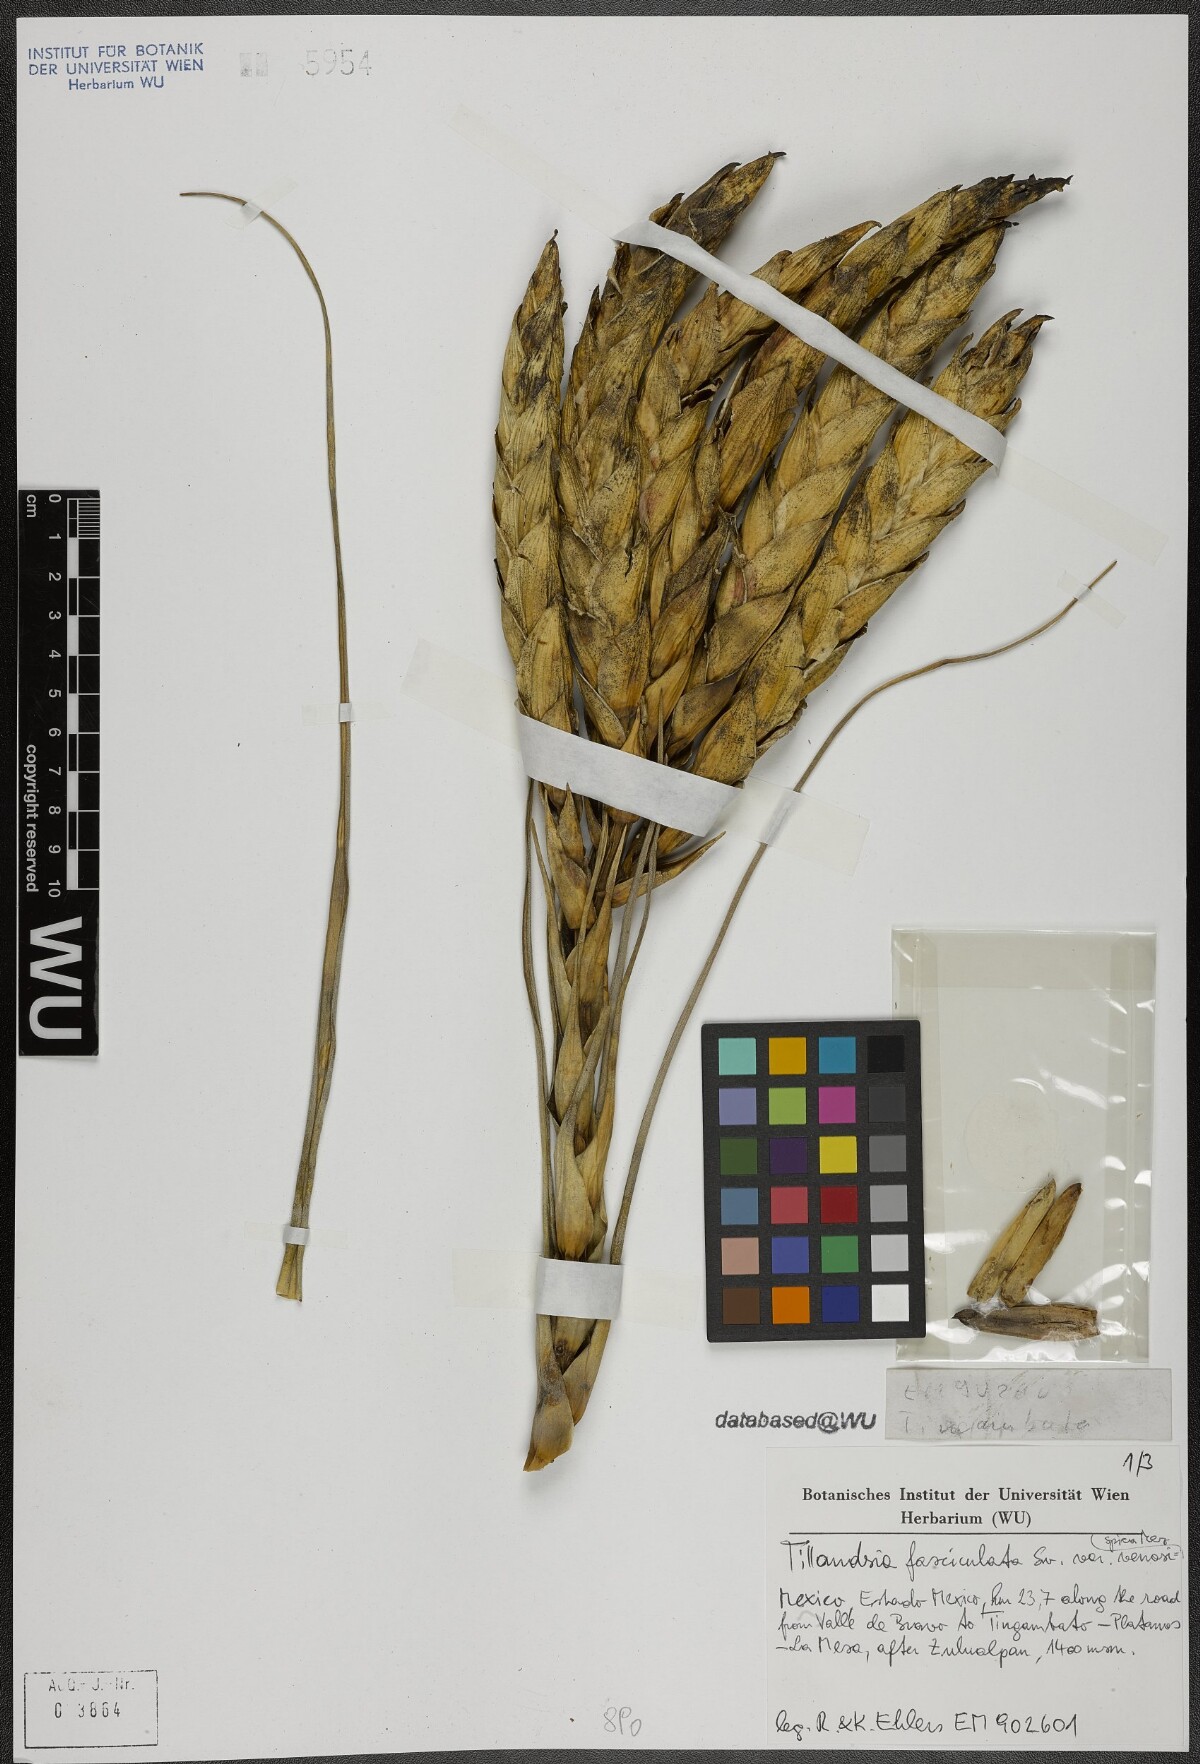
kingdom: Plantae
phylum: Tracheophyta
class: Liliopsida
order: Poales
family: Bromeliaceae
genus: Tillandsia
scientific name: Tillandsia fasciculata
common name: Giant airplant
